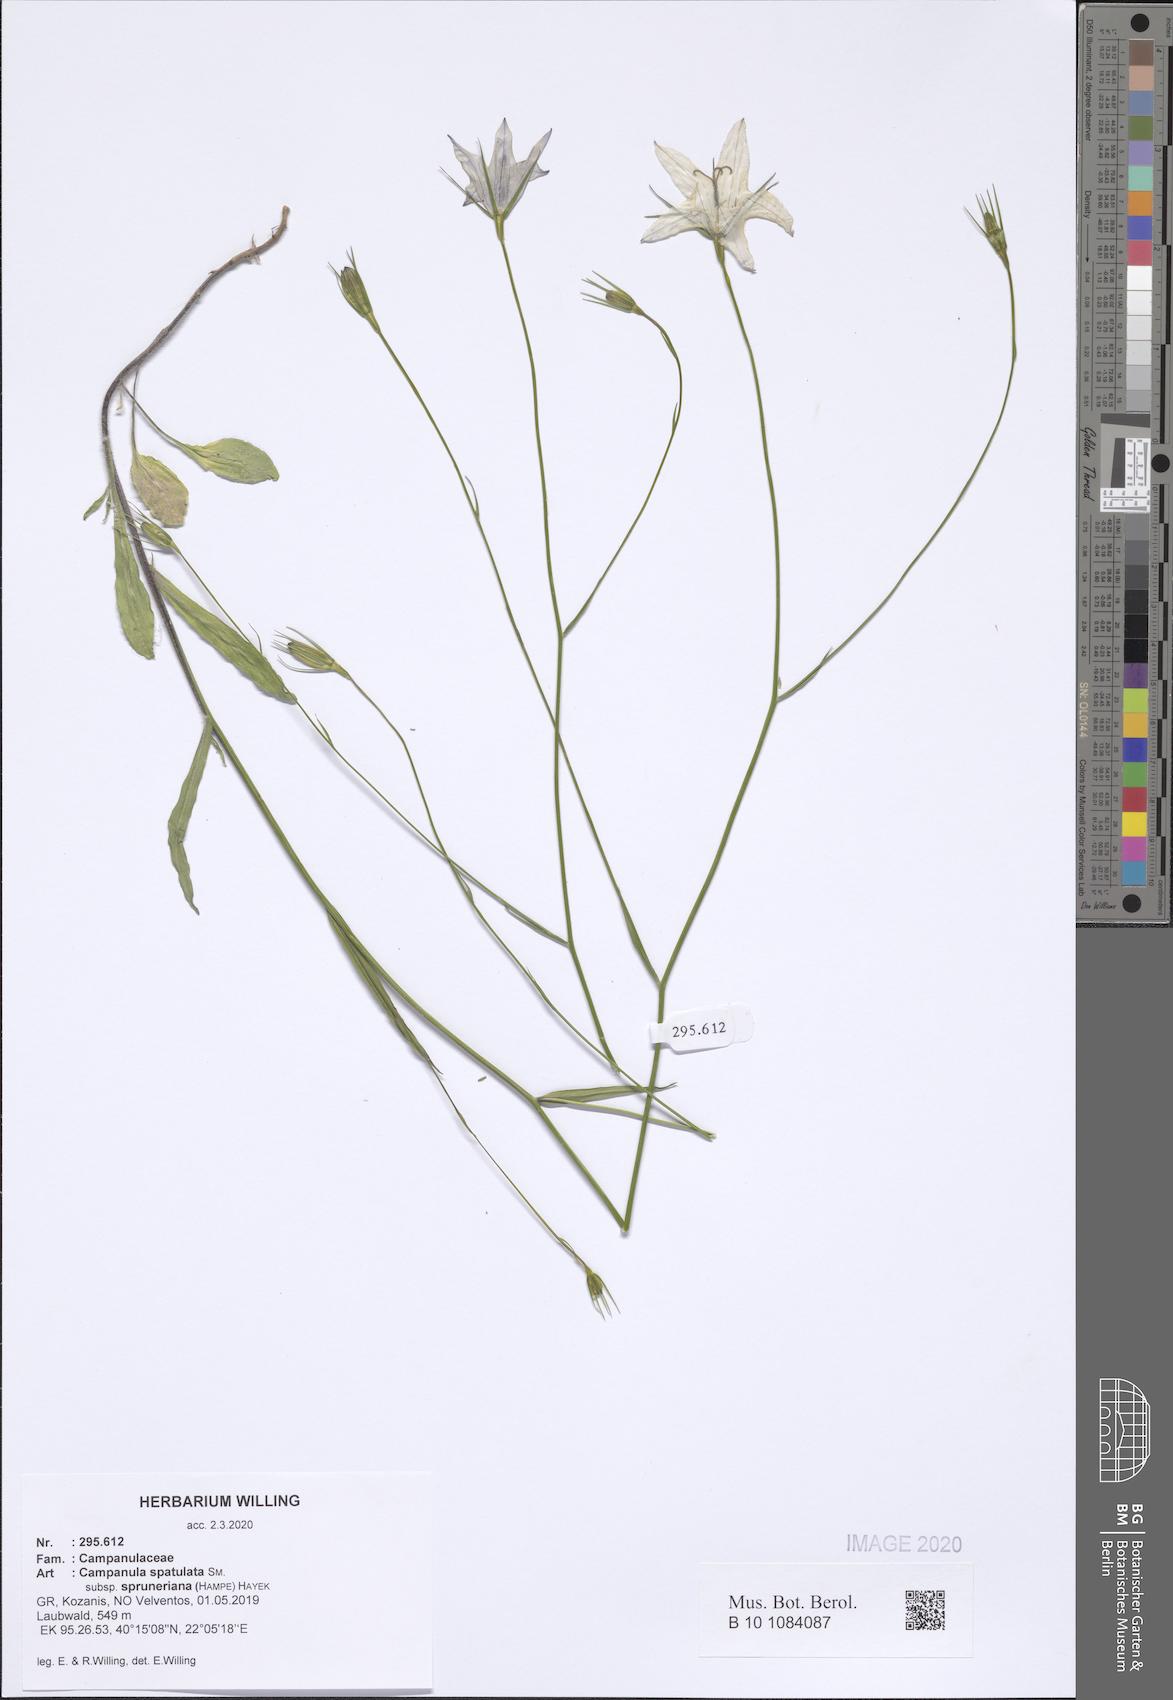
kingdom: Plantae
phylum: Tracheophyta
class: Magnoliopsida
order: Asterales
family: Campanulaceae
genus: Campanula
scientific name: Campanula spatulata
